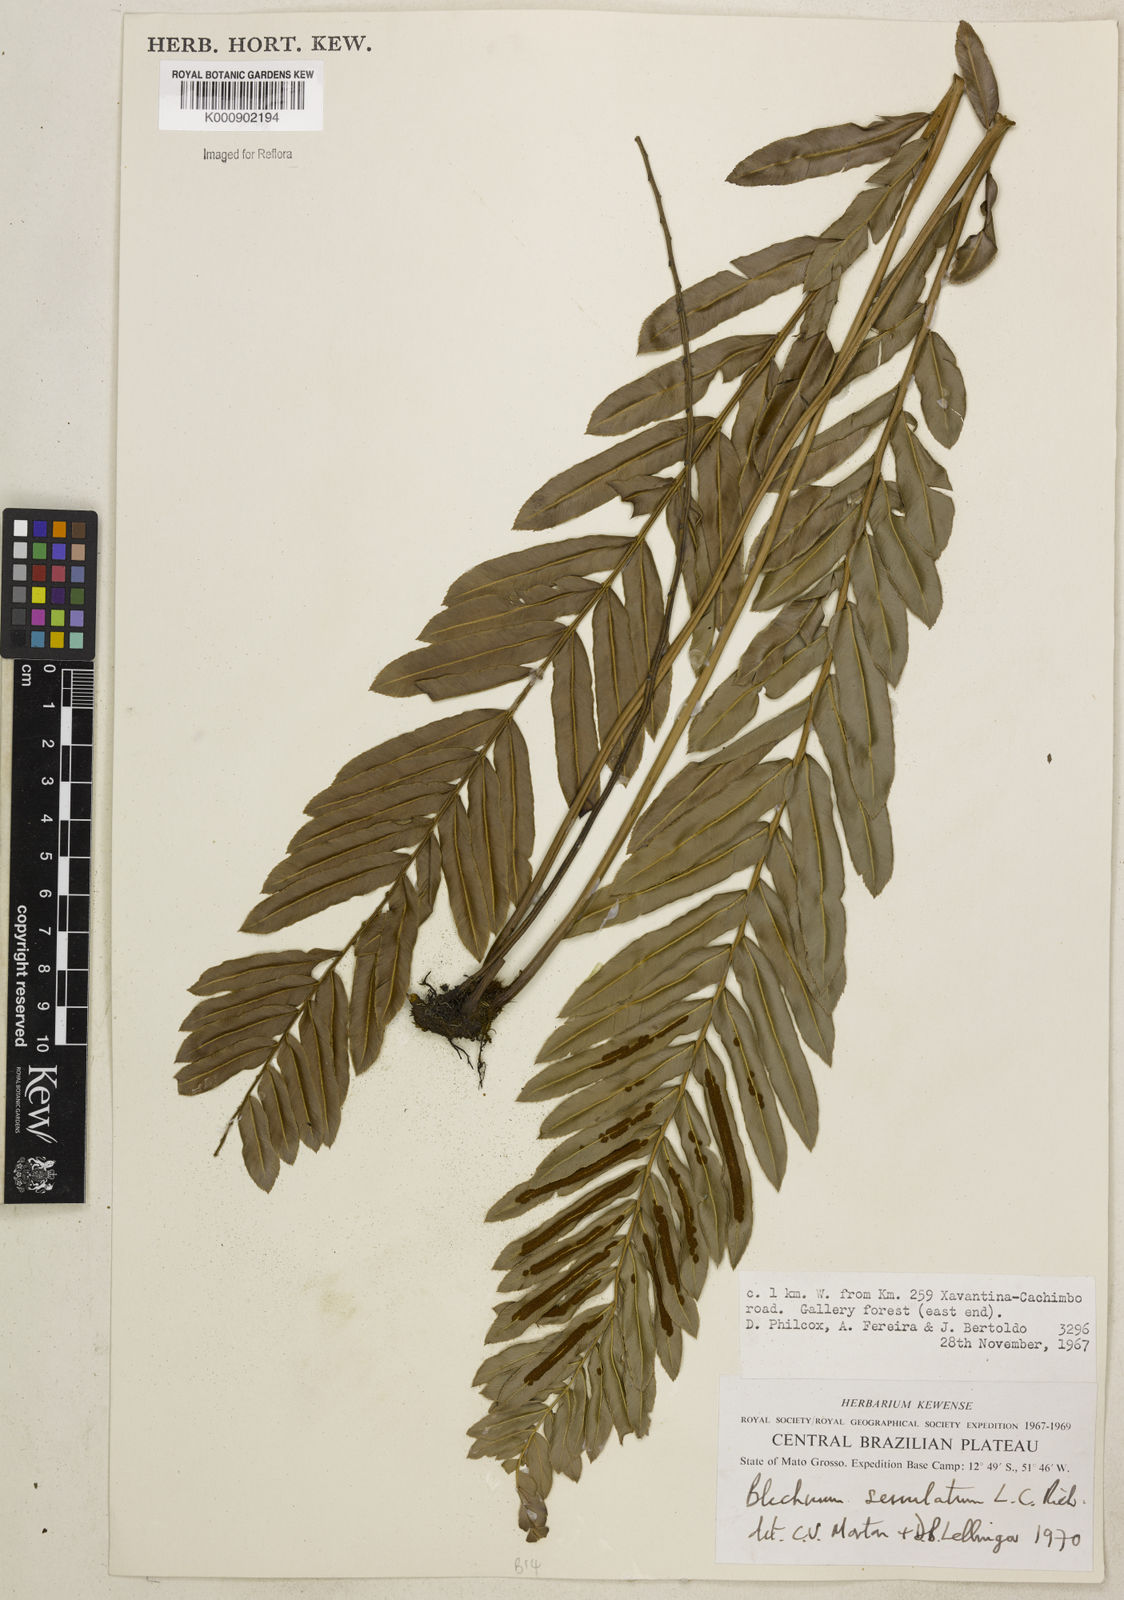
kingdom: Plantae
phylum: Tracheophyta
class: Polypodiopsida
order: Polypodiales
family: Blechnaceae
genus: Telmatoblechnum
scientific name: Telmatoblechnum serrulatum
